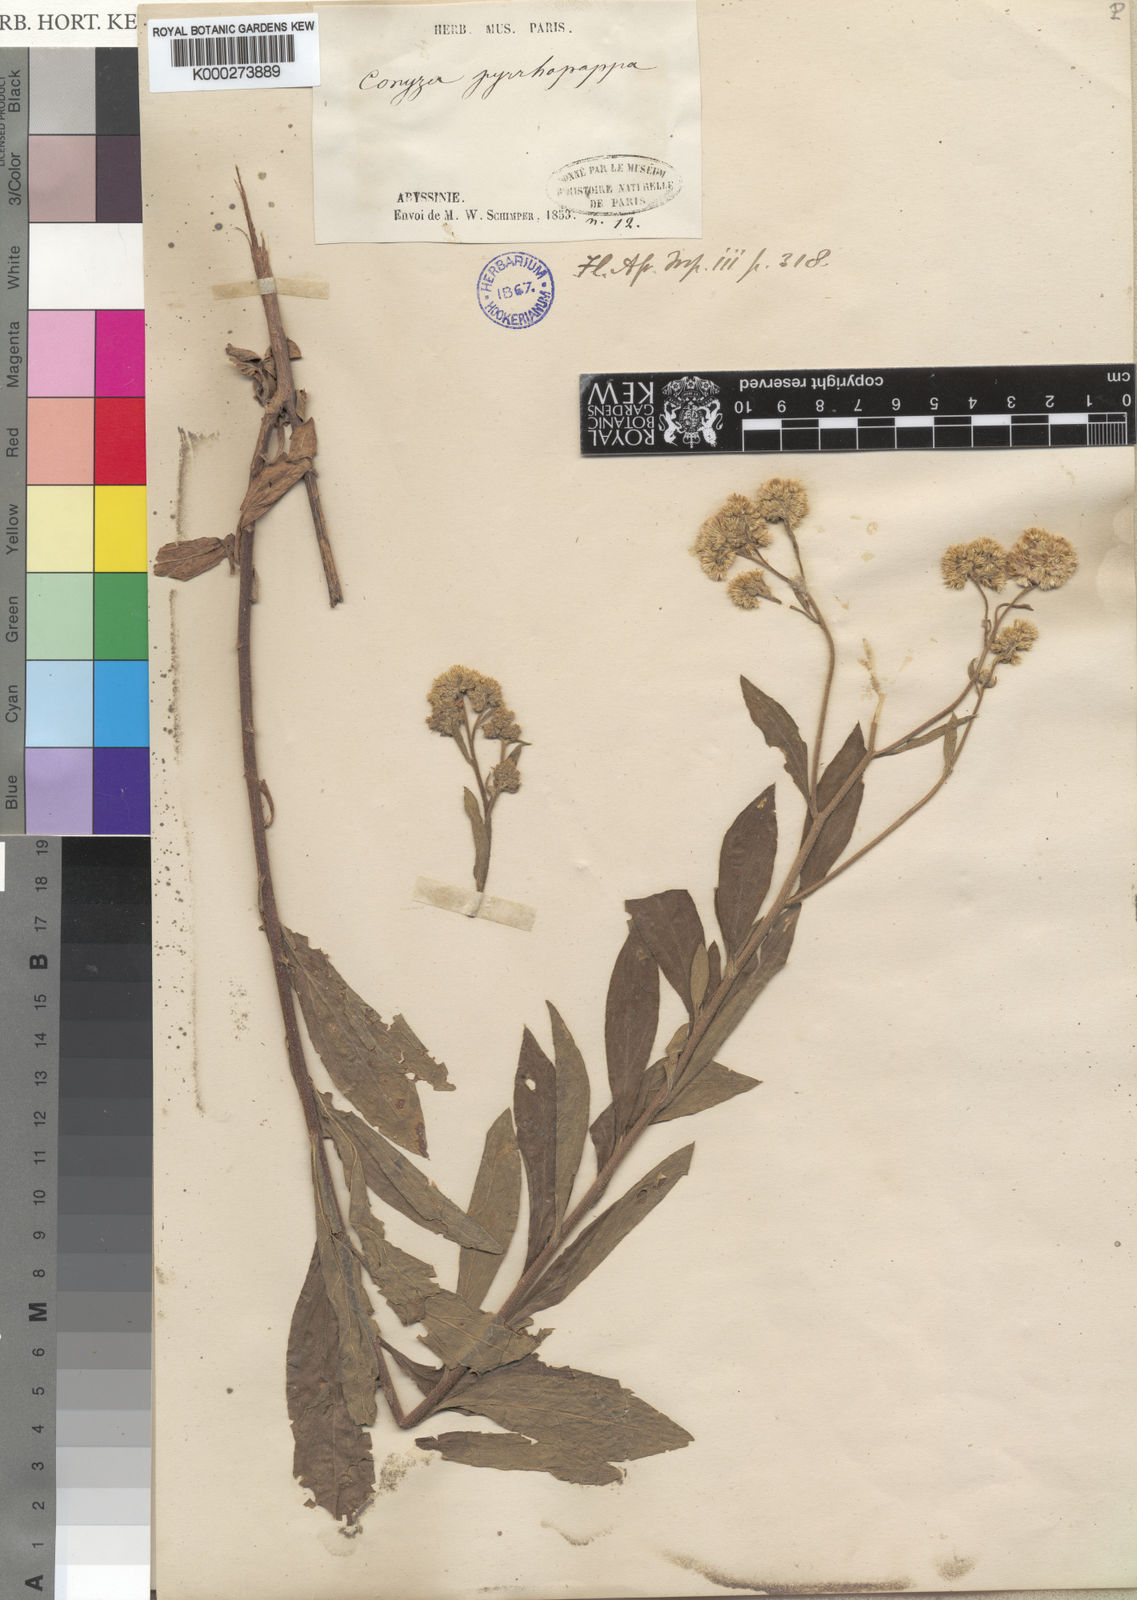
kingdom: Plantae
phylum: Tracheophyta
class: Magnoliopsida
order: Asterales
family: Asteraceae
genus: Microglossa
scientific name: Microglossa pyrrhopappa
